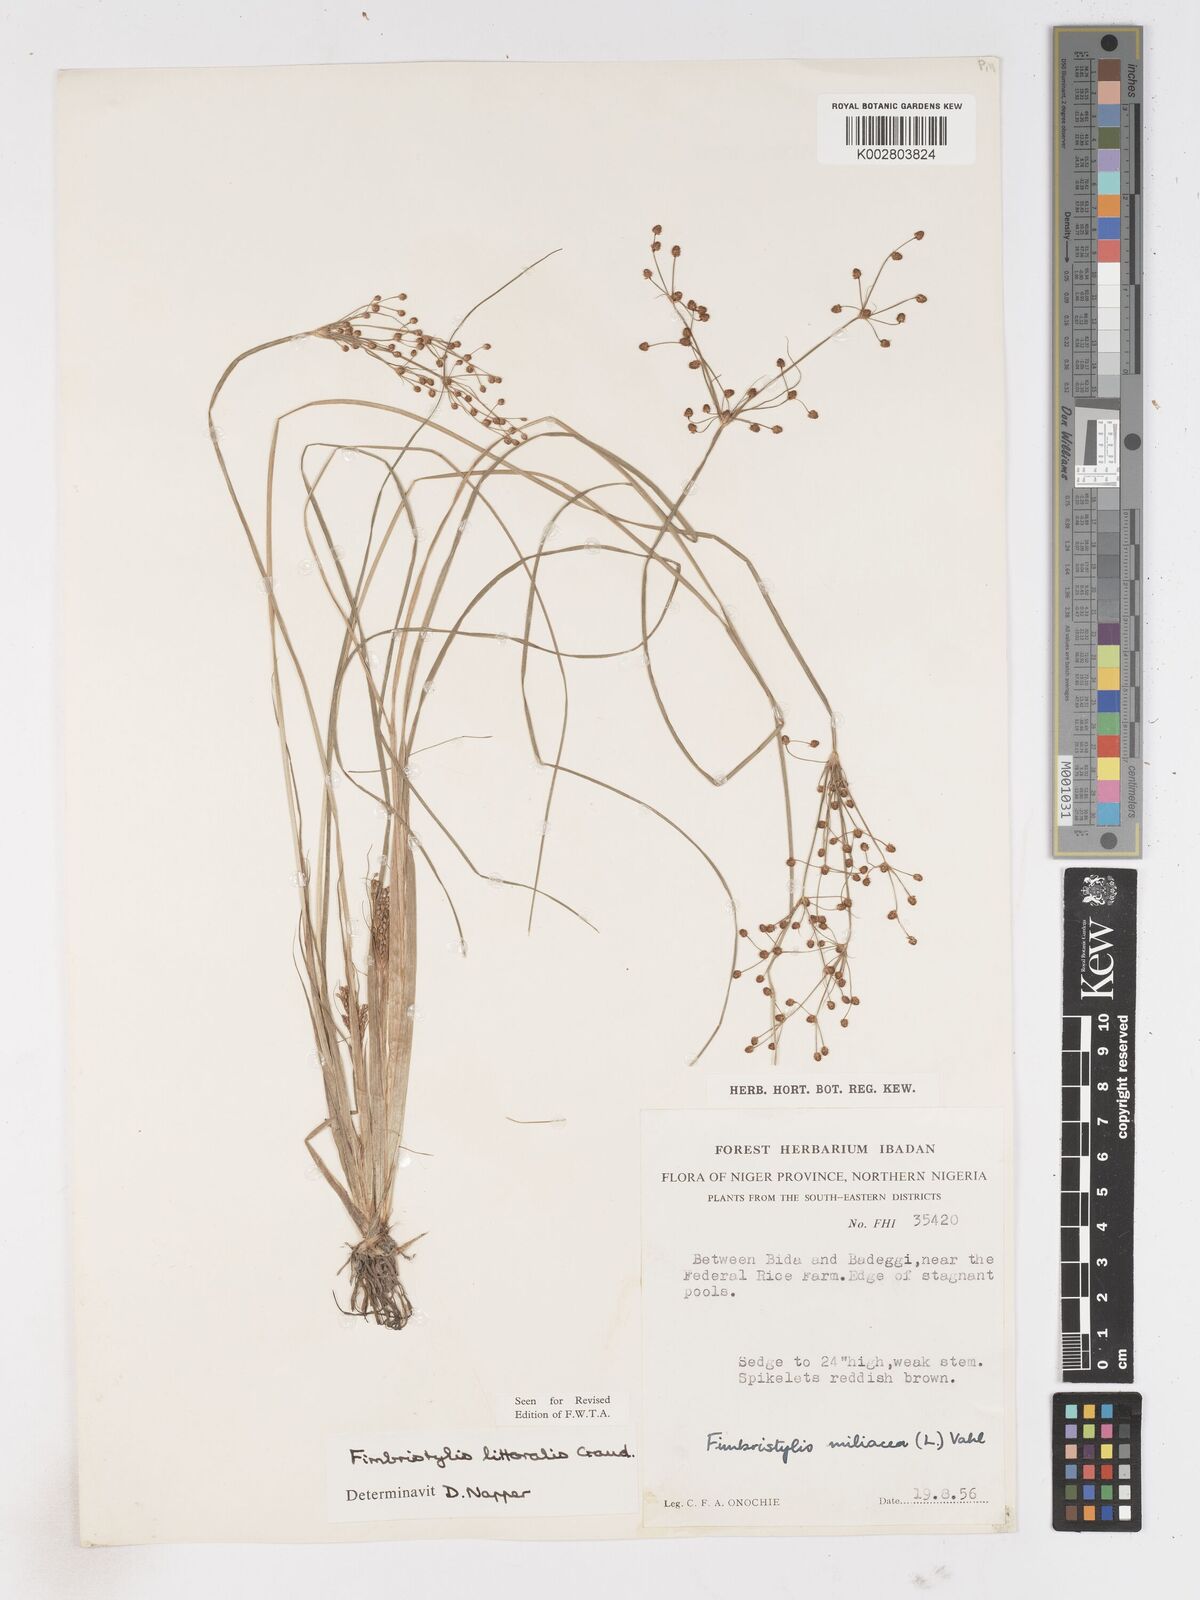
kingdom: Plantae
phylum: Tracheophyta
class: Liliopsida
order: Poales
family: Cyperaceae
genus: Fimbristylis
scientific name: Fimbristylis littoralis
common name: Fimbry
